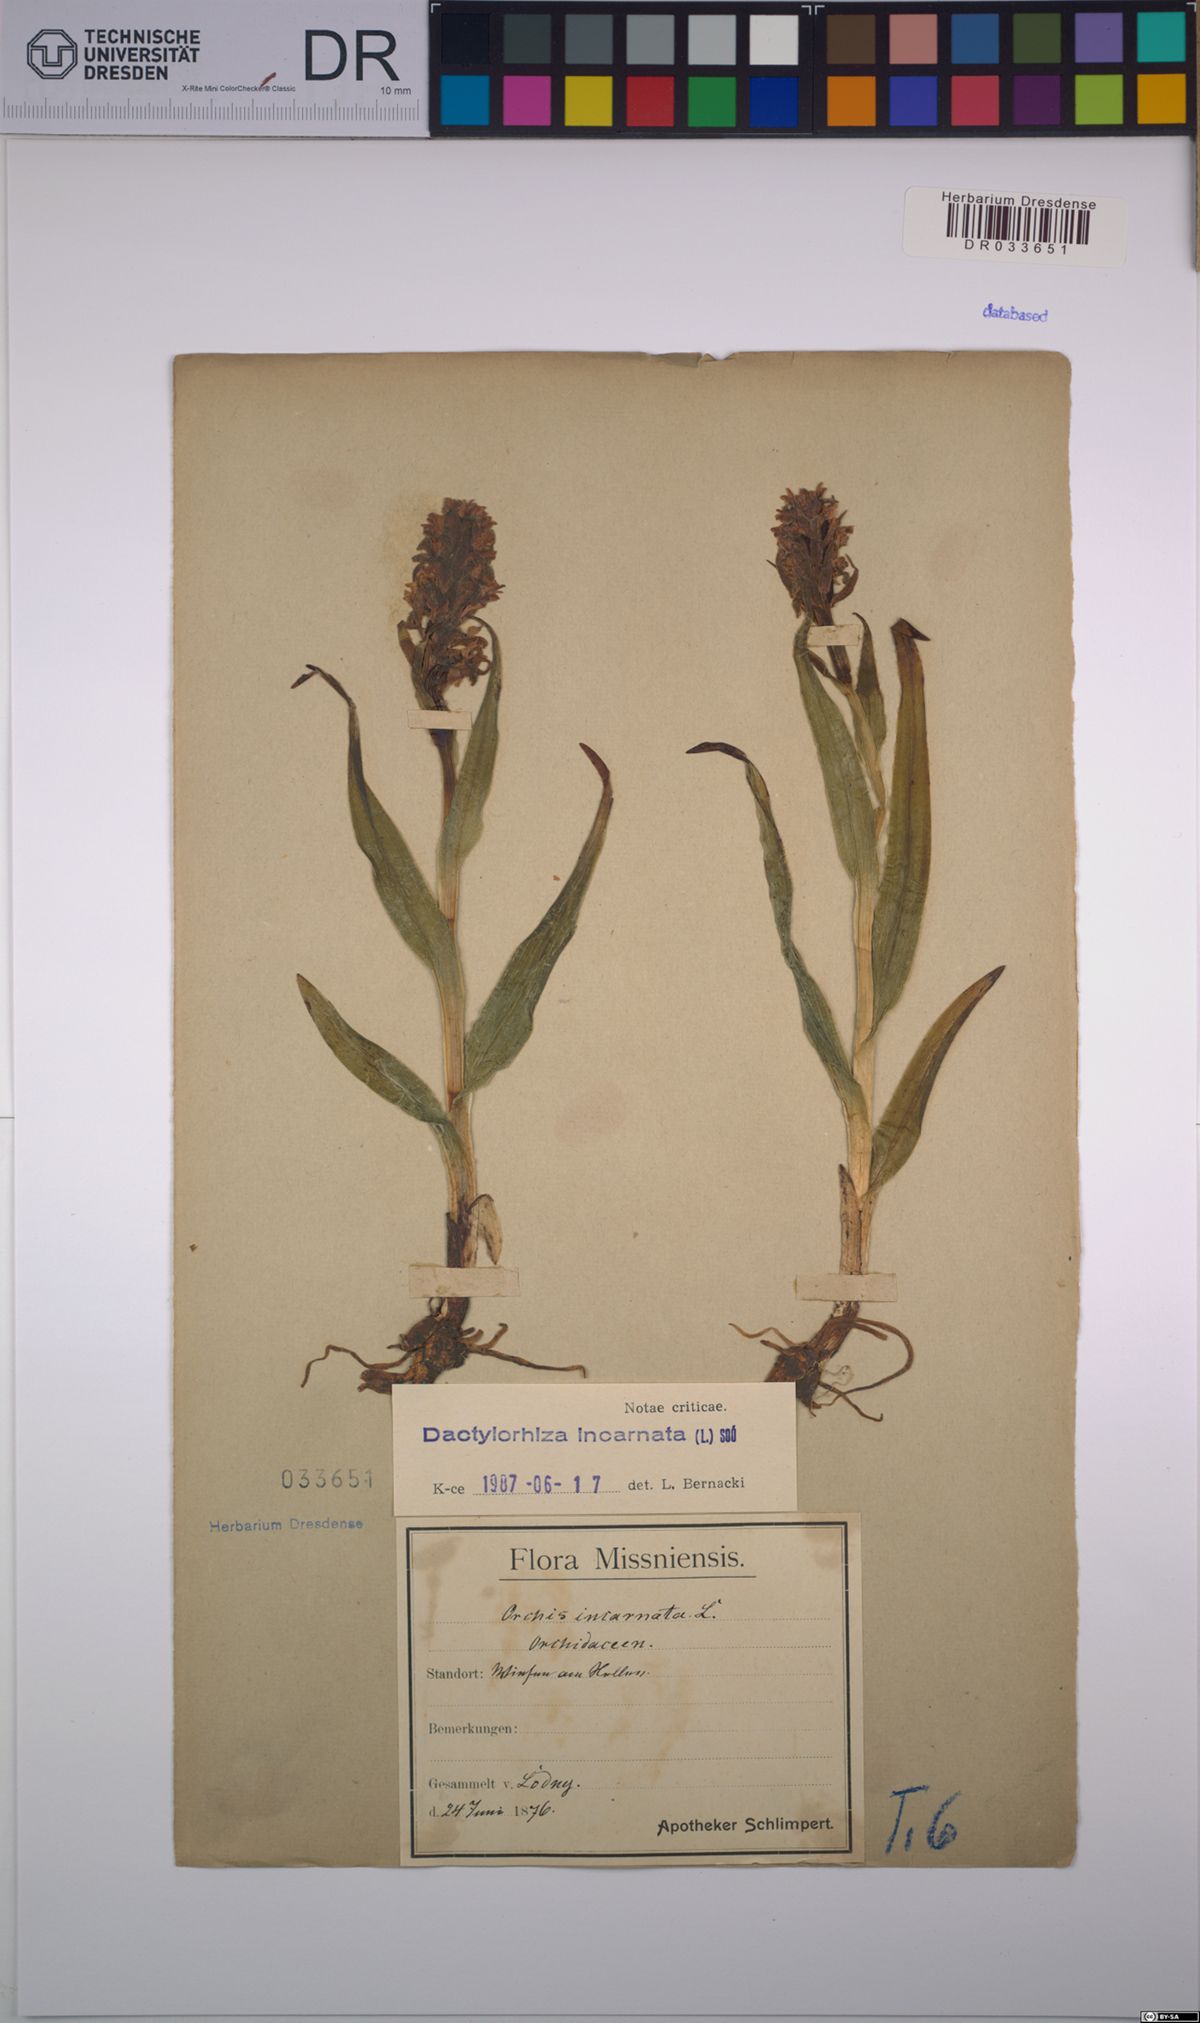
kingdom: Plantae
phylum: Tracheophyta
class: Liliopsida
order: Asparagales
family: Orchidaceae
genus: Dactylorhiza
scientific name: Dactylorhiza incarnata
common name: Early marsh-orchid
